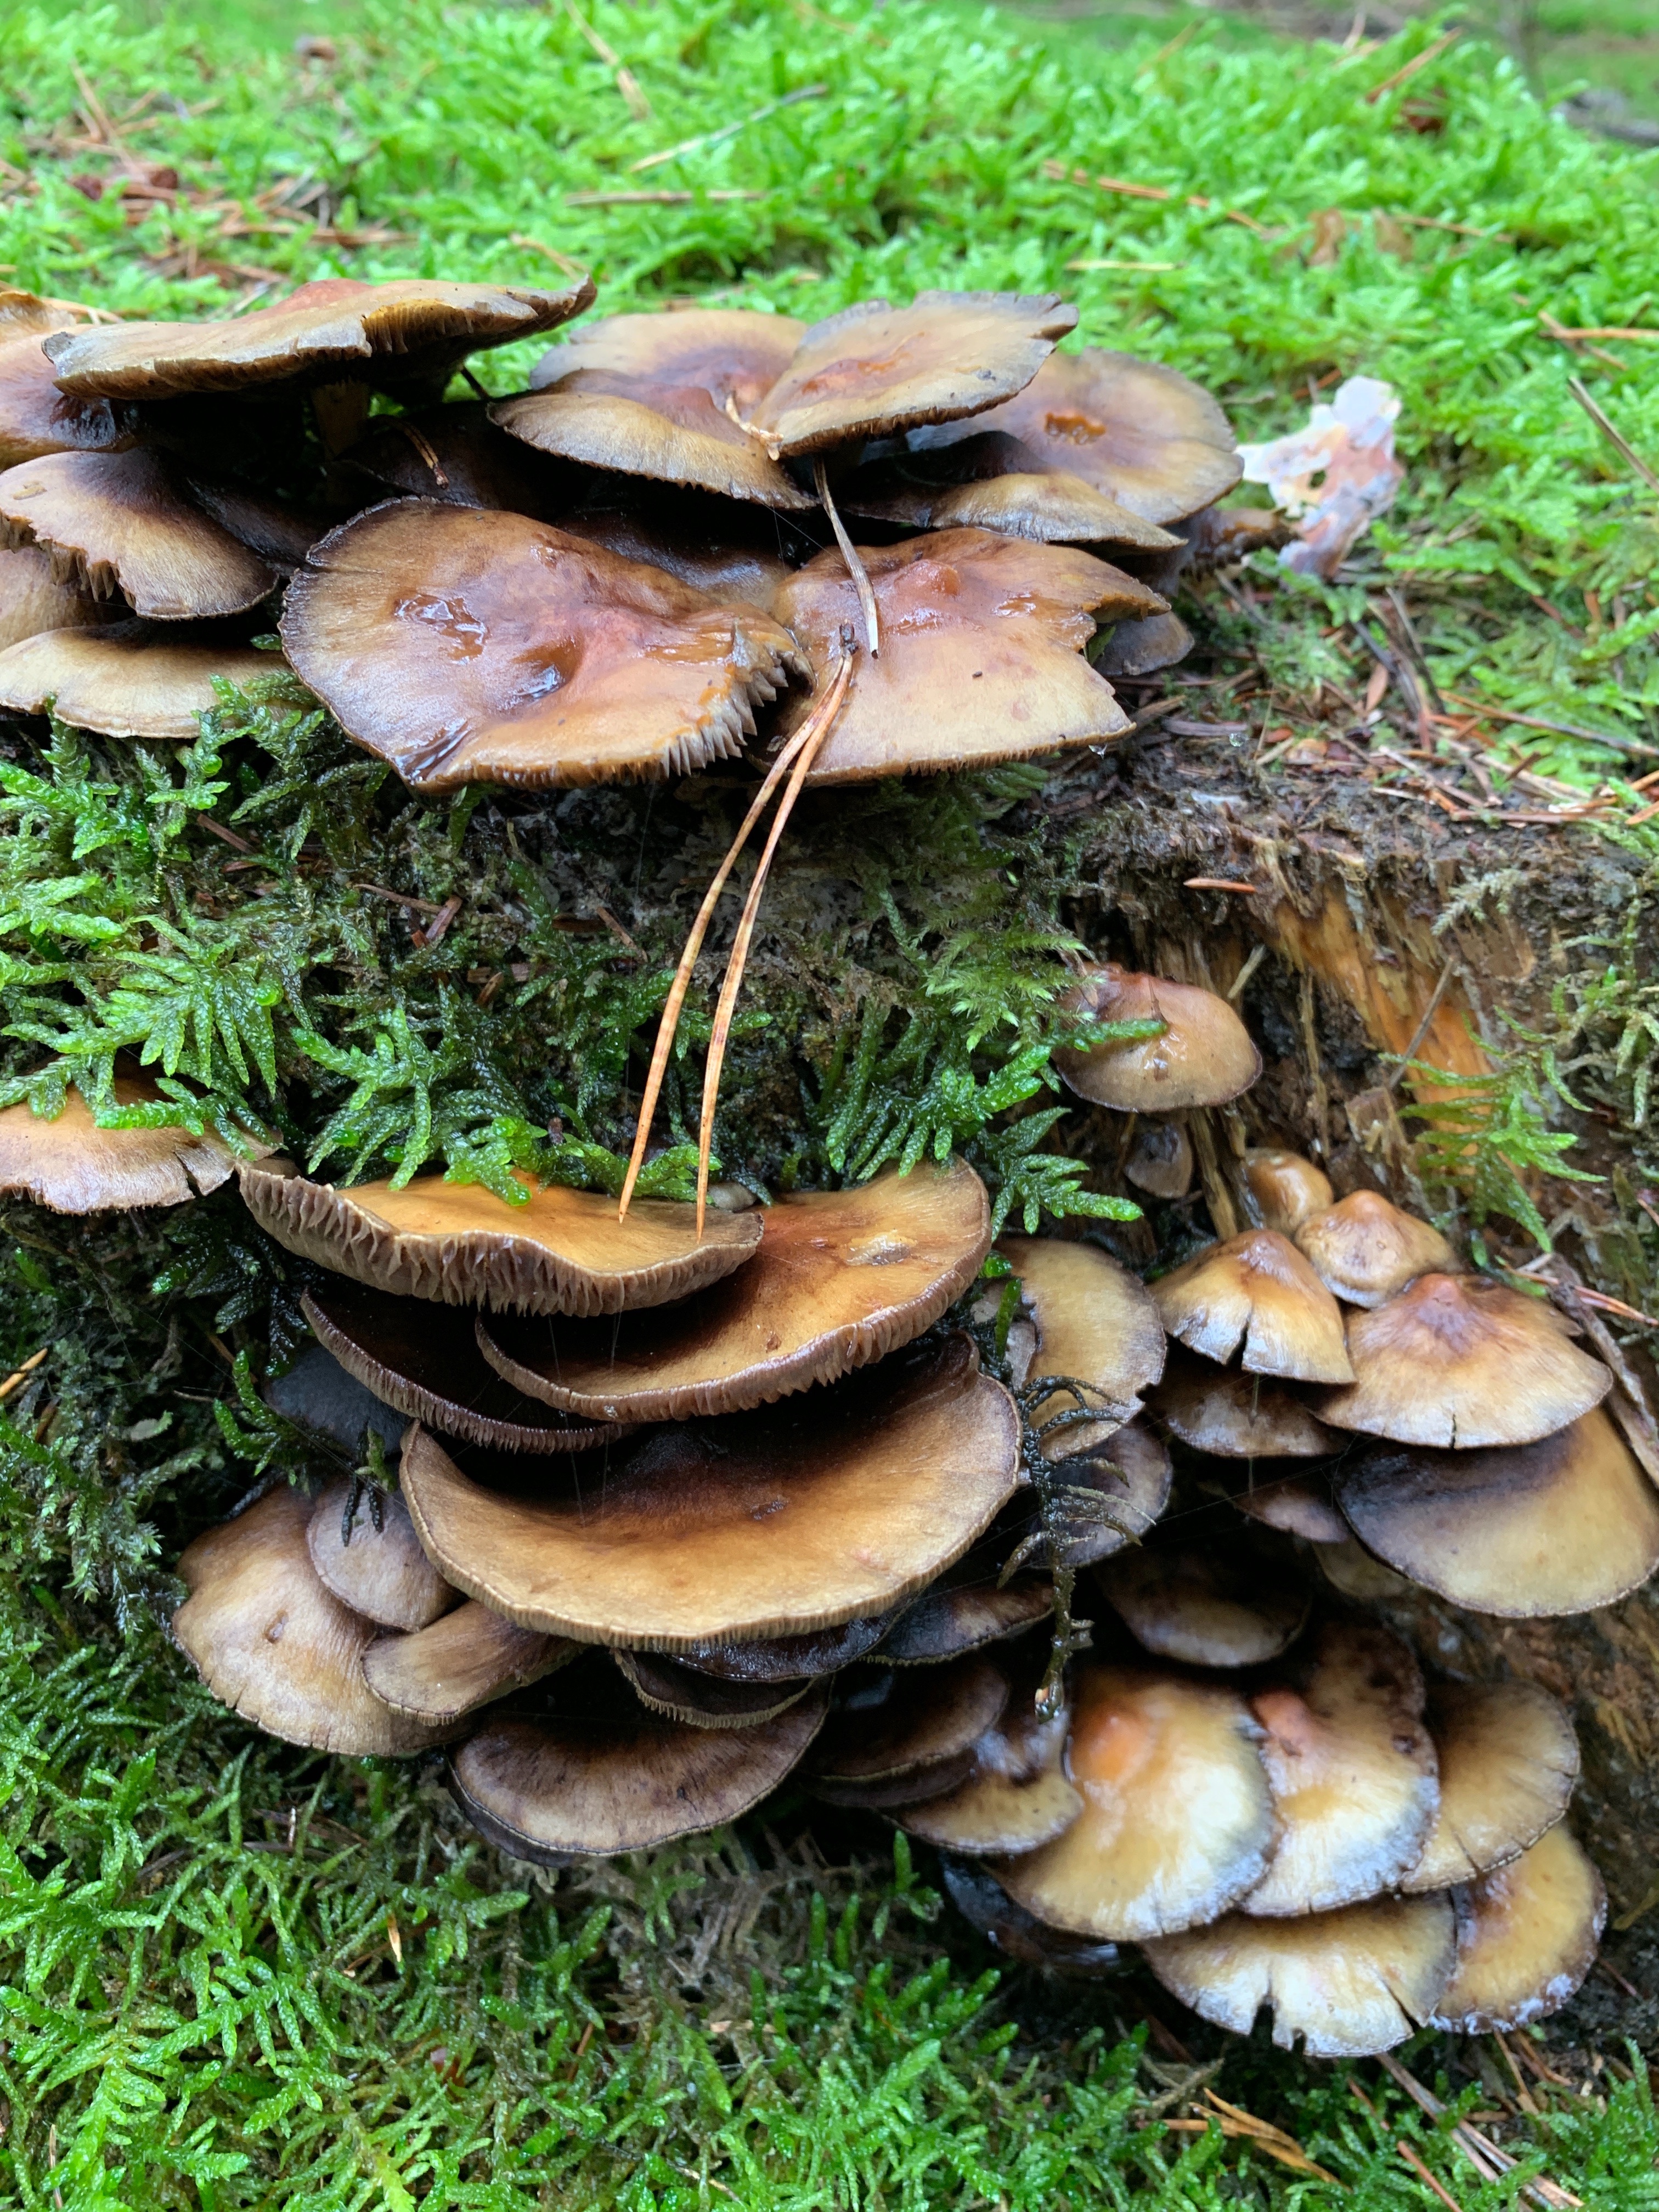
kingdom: Fungi
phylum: Basidiomycota
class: Agaricomycetes
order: Agaricales
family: Strophariaceae
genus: Hypholoma
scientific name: Hypholoma fasciculare
